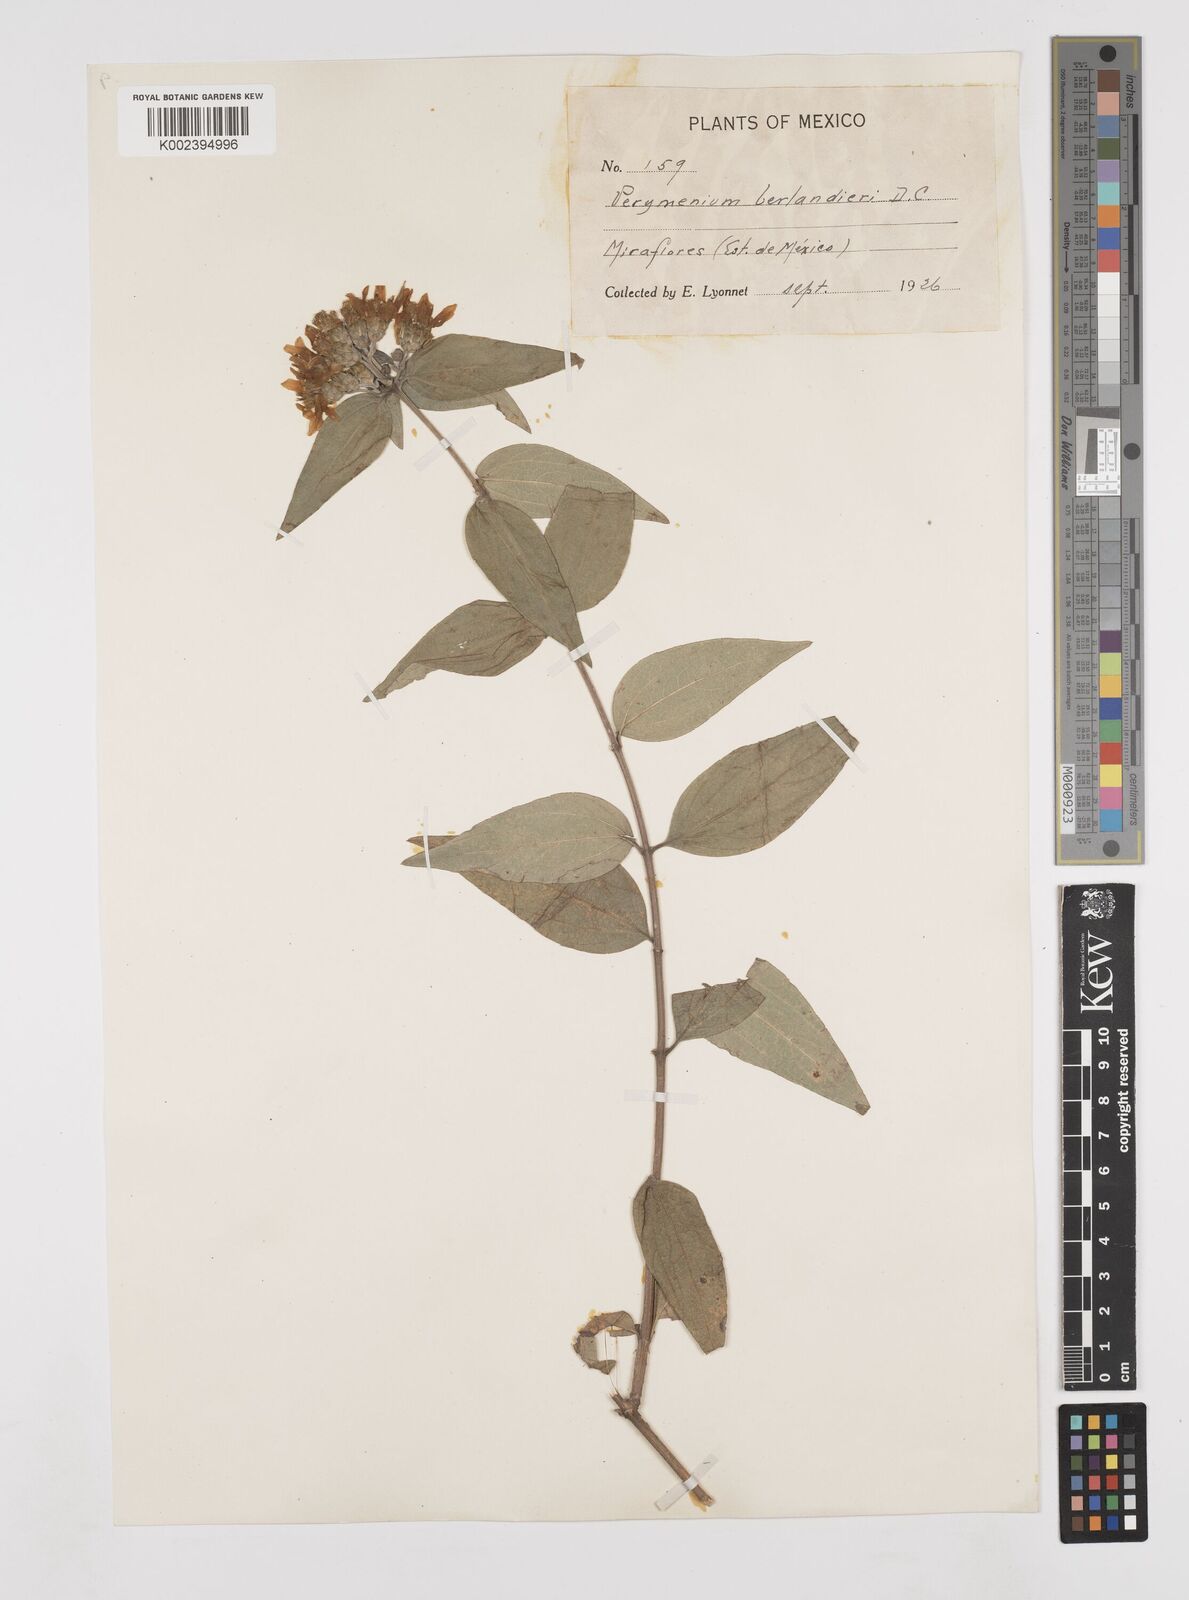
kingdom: Plantae
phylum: Tracheophyta
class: Magnoliopsida
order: Asterales
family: Asteraceae
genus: Perymenium
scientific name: Perymenium berlandieri
